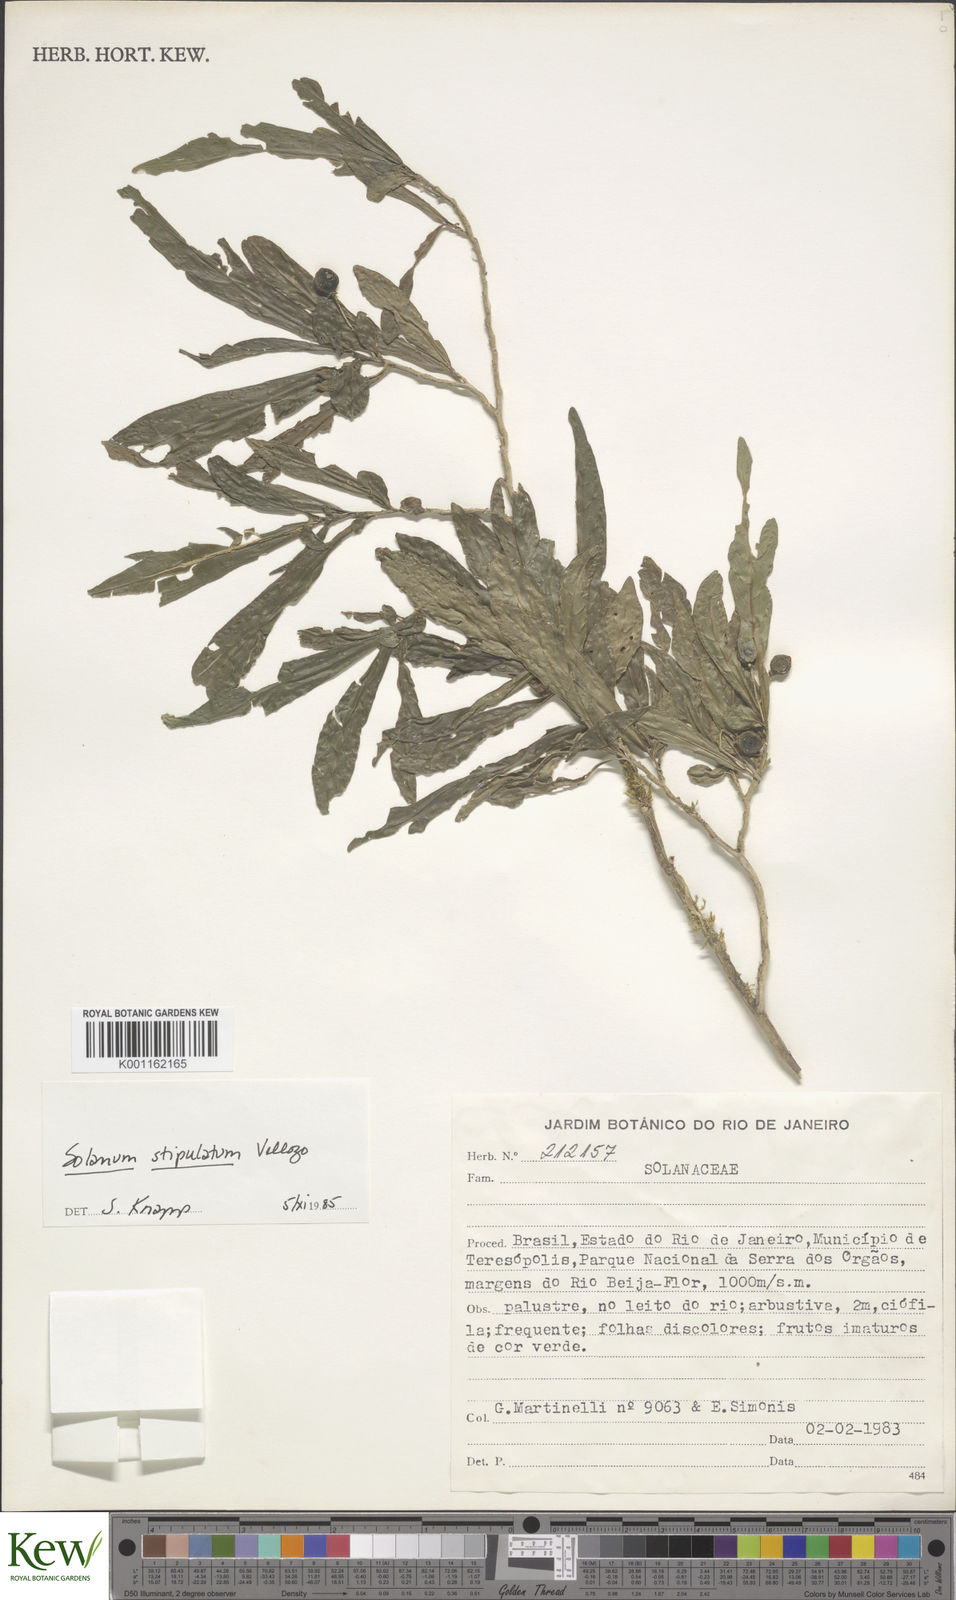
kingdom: Plantae
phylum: Tracheophyta
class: Magnoliopsida
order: Solanales
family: Solanaceae
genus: Solanum
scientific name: Solanum stipulatum
